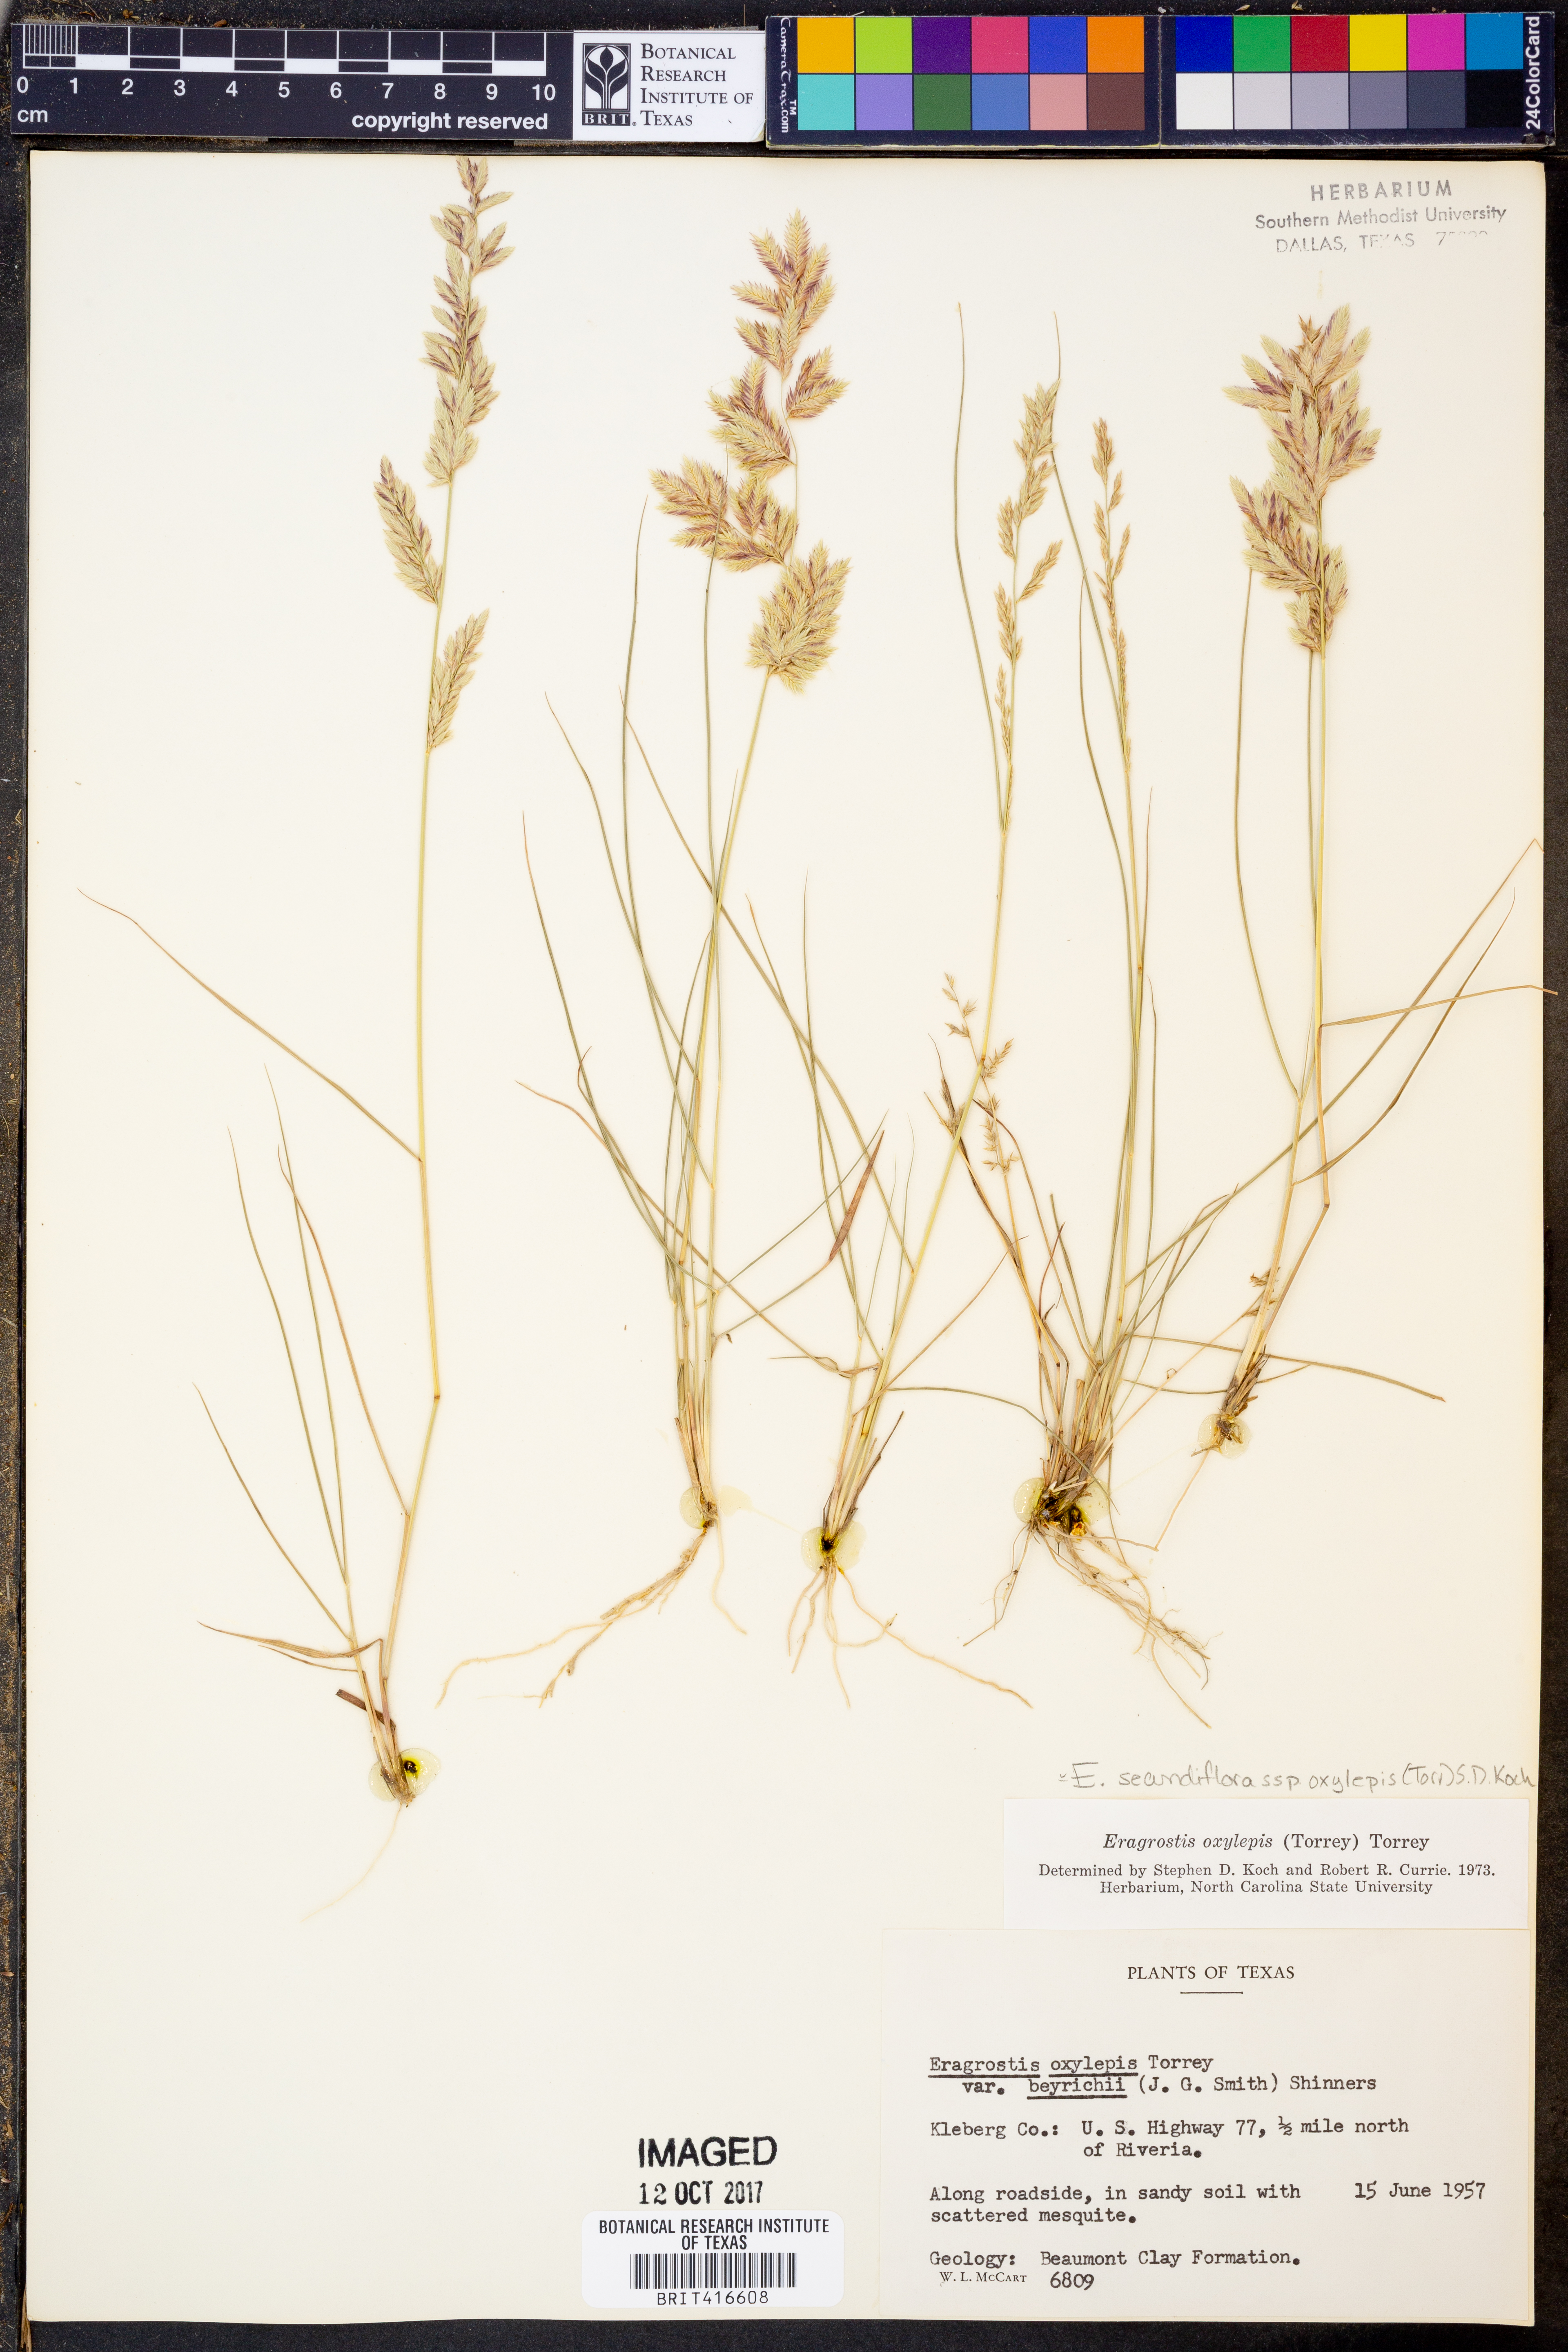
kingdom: Plantae
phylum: Tracheophyta
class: Liliopsida
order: Poales
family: Poaceae
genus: Eragrostis
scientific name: Eragrostis secundiflora
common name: Red love grass
